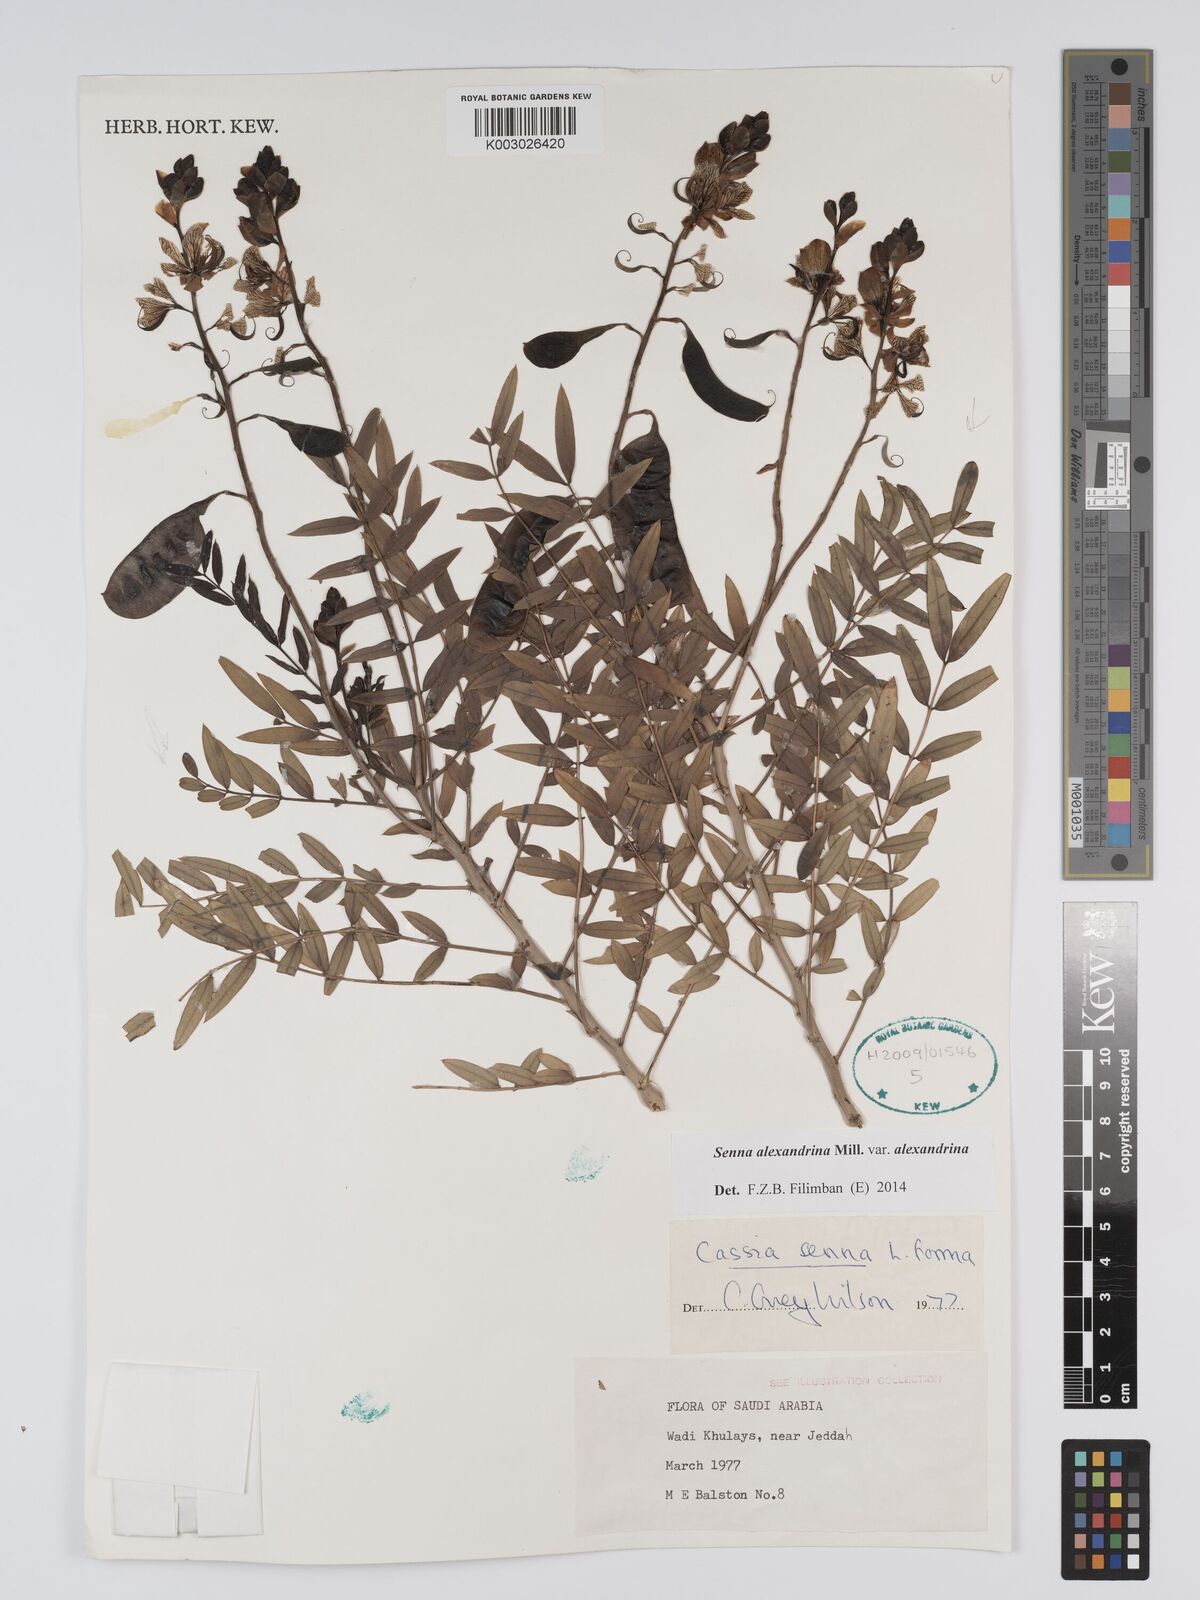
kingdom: Plantae
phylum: Tracheophyta
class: Magnoliopsida
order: Fabales
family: Fabaceae
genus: Senna
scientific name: Senna alexandrina
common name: True senna
